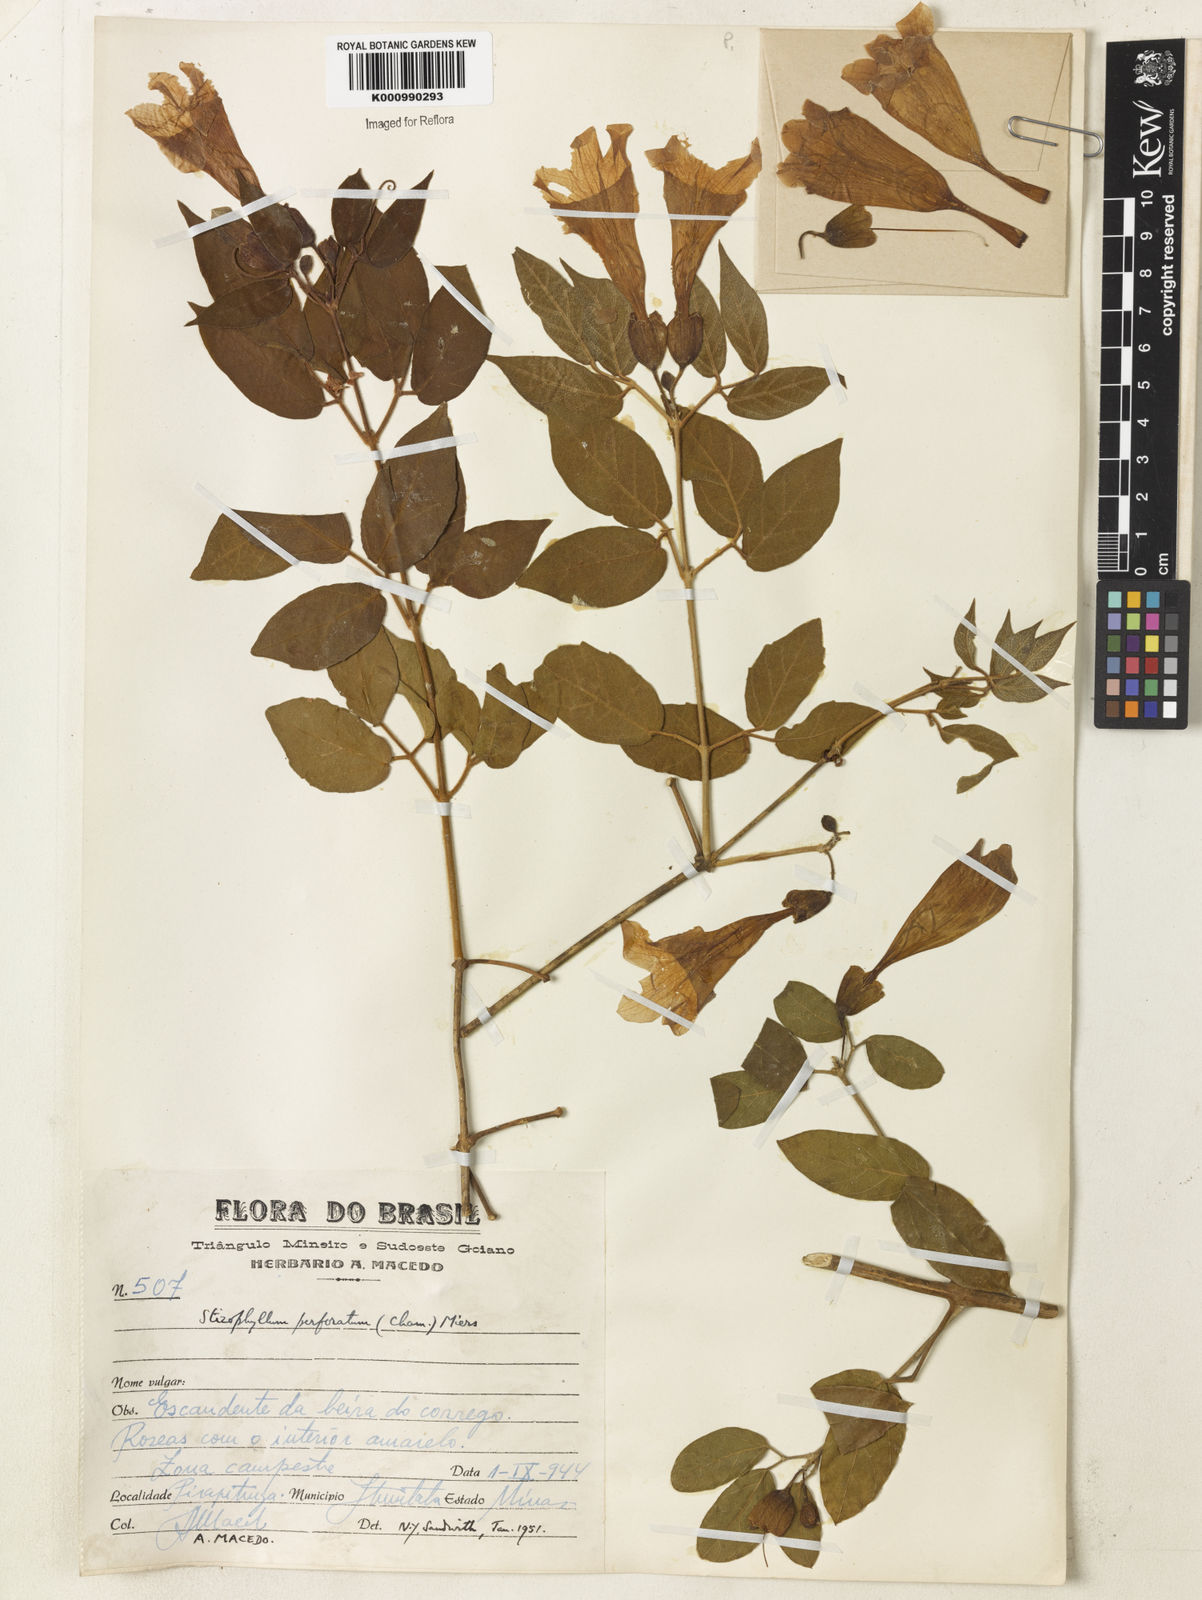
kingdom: Plantae
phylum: Tracheophyta
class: Magnoliopsida
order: Lamiales
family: Bignoniaceae
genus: Stizophyllum
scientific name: Stizophyllum perforatum
